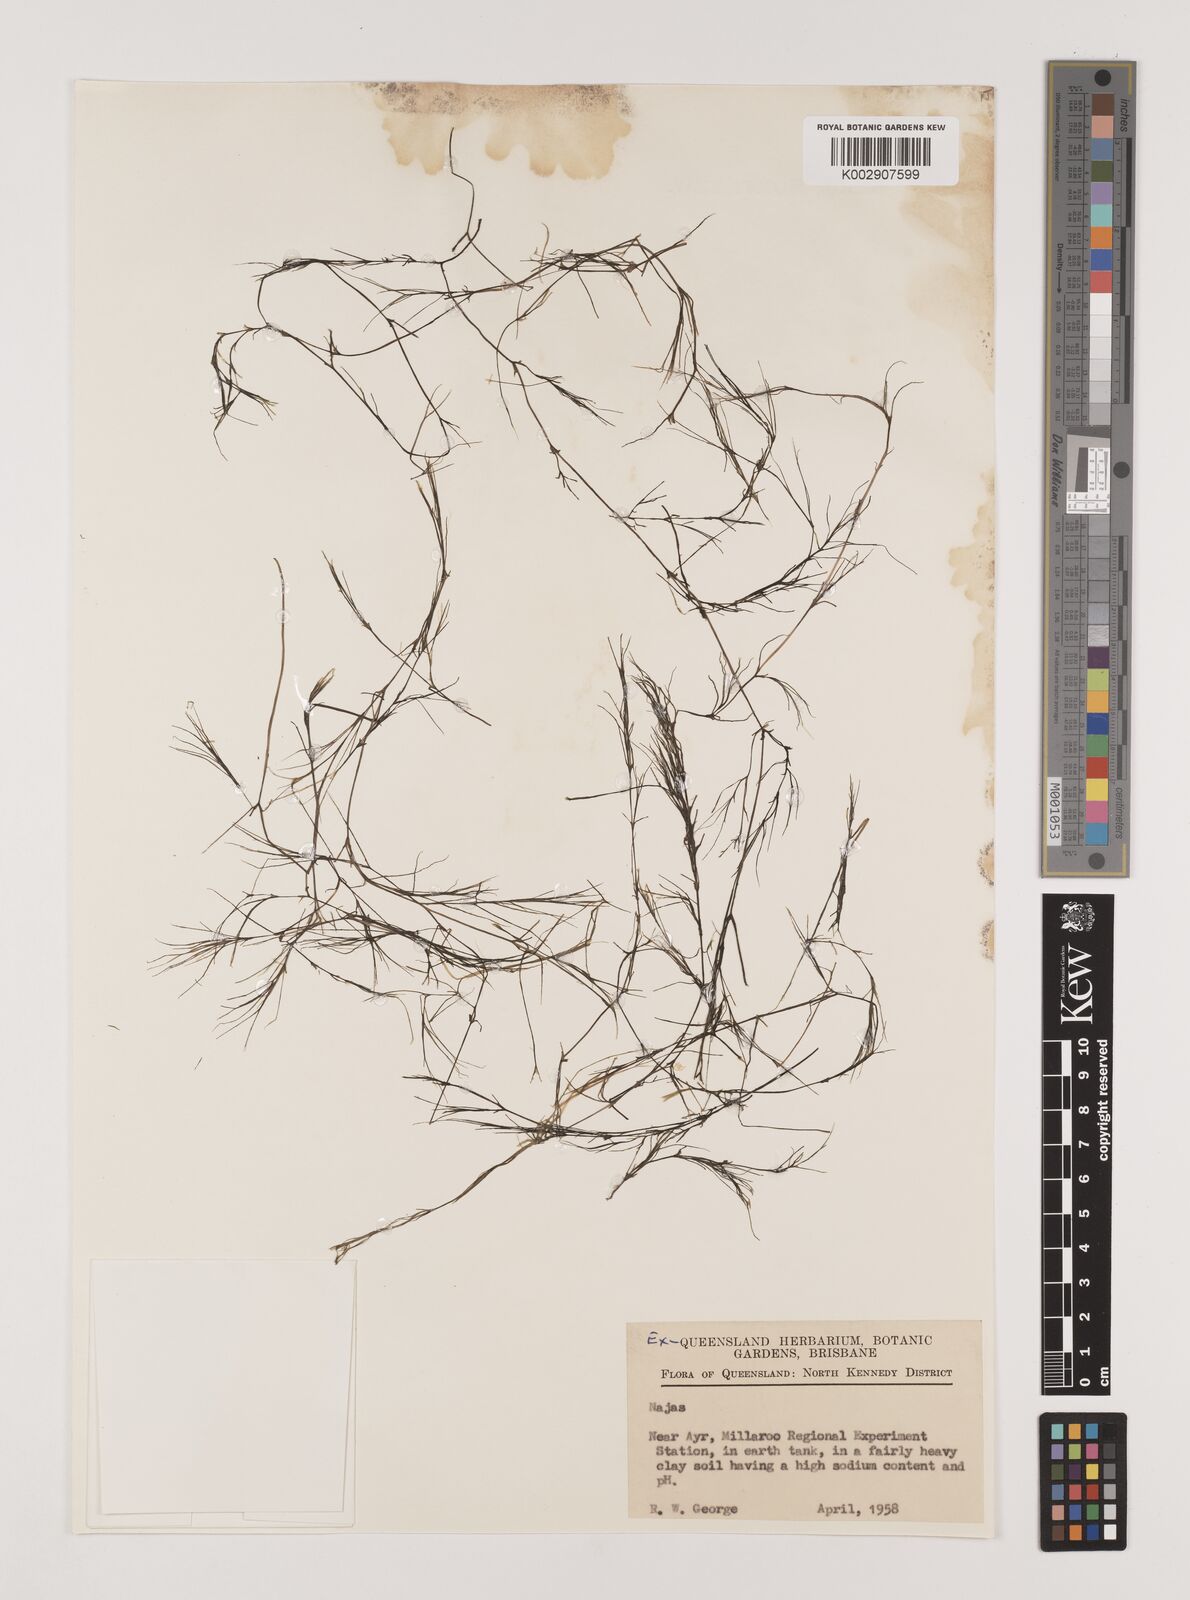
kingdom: Plantae
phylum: Tracheophyta
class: Liliopsida
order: Alismatales
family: Hydrocharitaceae
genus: Najas
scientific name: Najas
